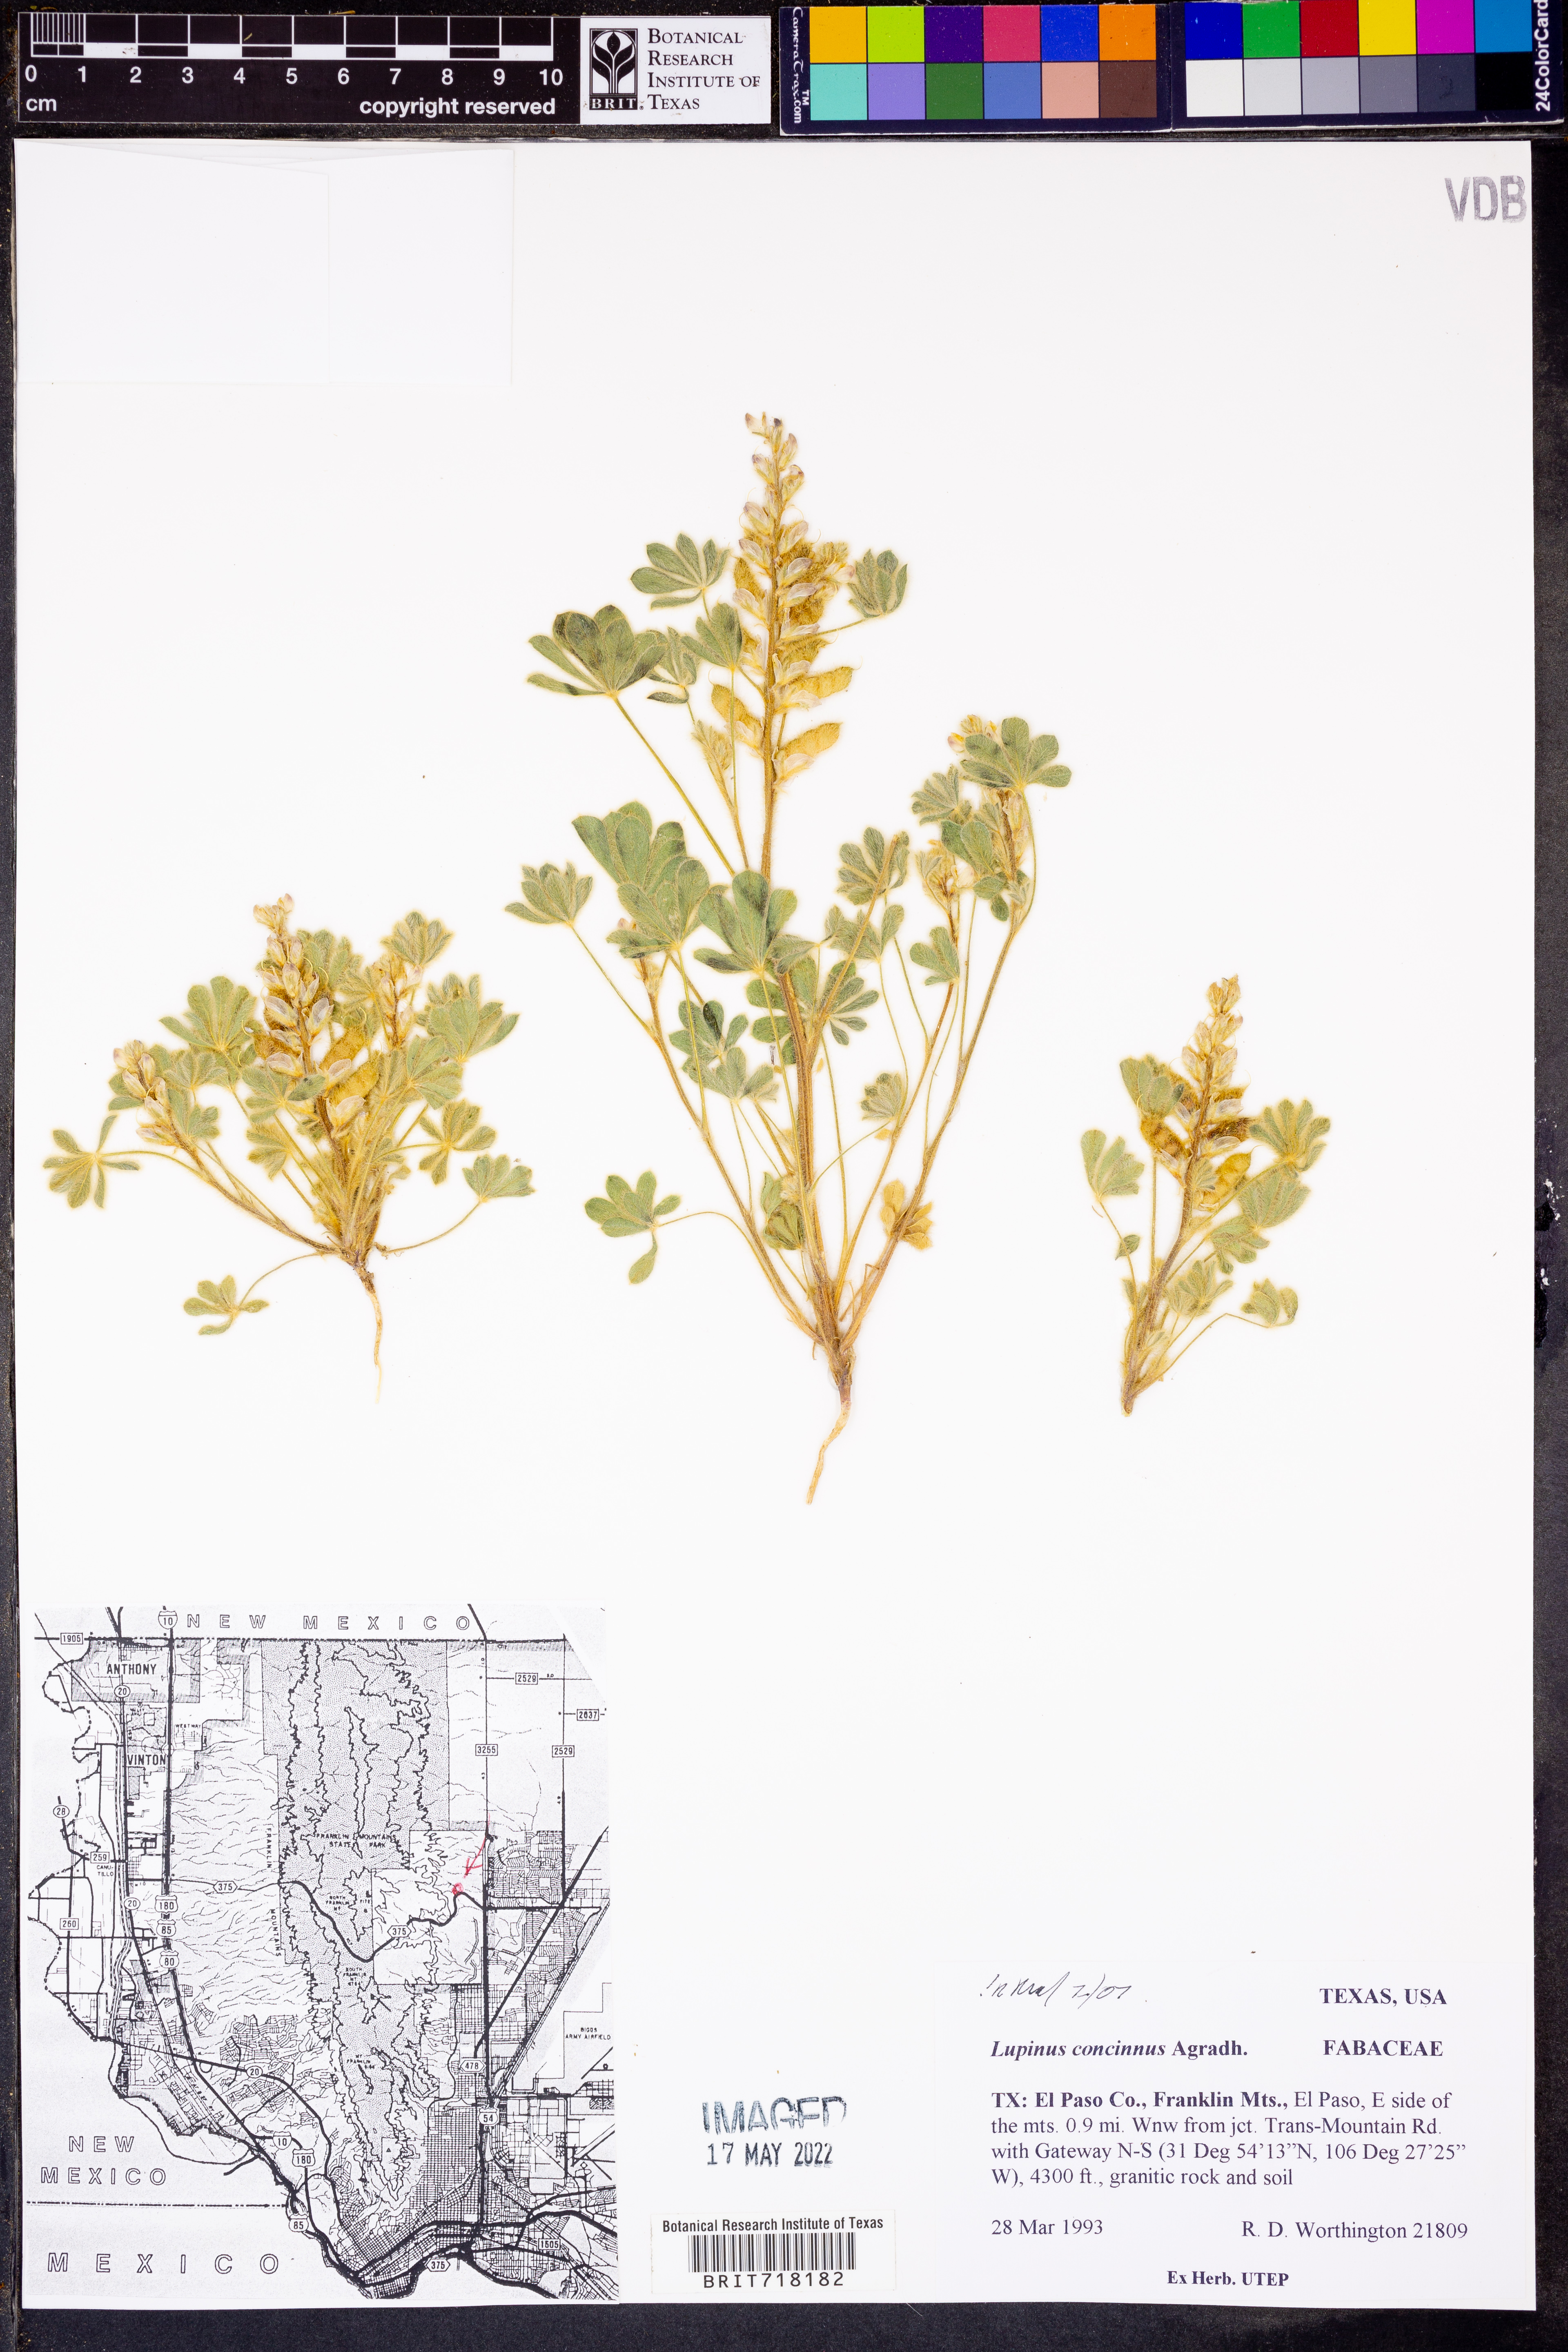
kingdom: Plantae
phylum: Tracheophyta
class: Magnoliopsida
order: Fabales
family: Fabaceae
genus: Lupinus
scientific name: Lupinus concinnus
